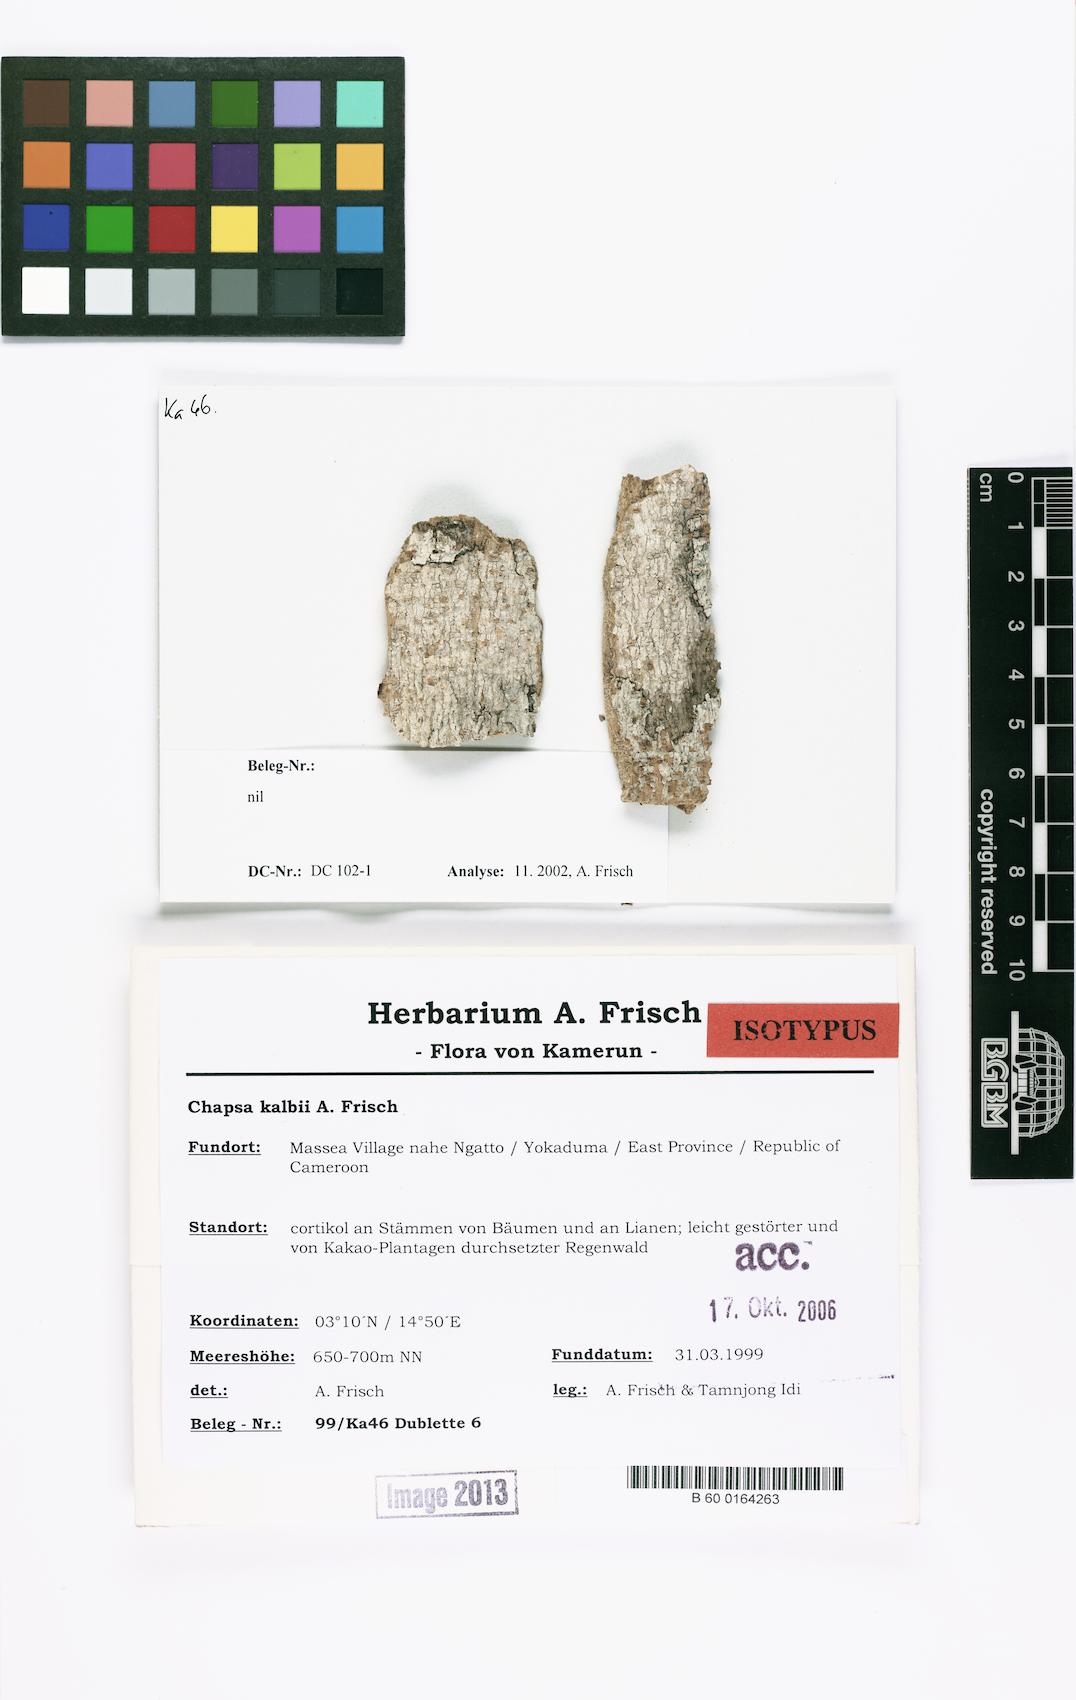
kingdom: Fungi
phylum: Ascomycota
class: Lecanoromycetes
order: Ostropales
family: Graphidaceae
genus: Pseudochapsa
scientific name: Pseudochapsa kalbii
